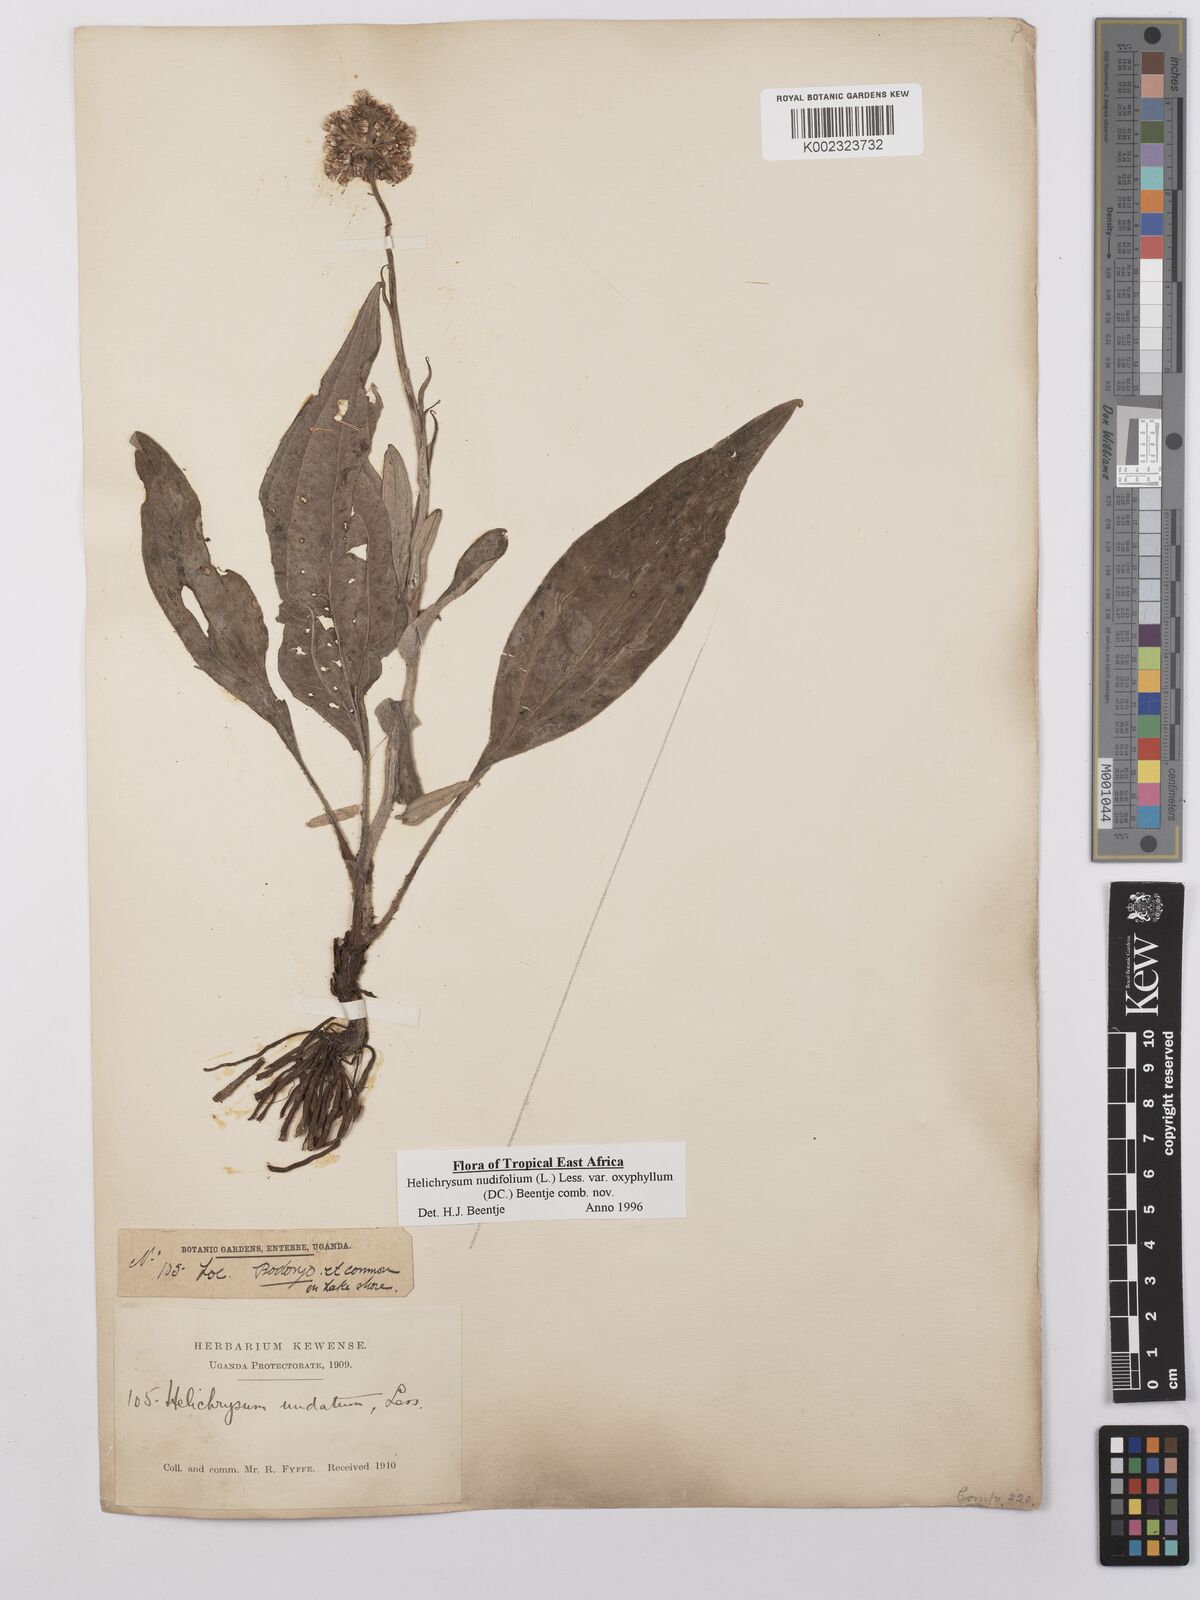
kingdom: Plantae
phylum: Tracheophyta
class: Magnoliopsida
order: Asterales
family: Asteraceae
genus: Helichrysum
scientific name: Helichrysum nudifolium
